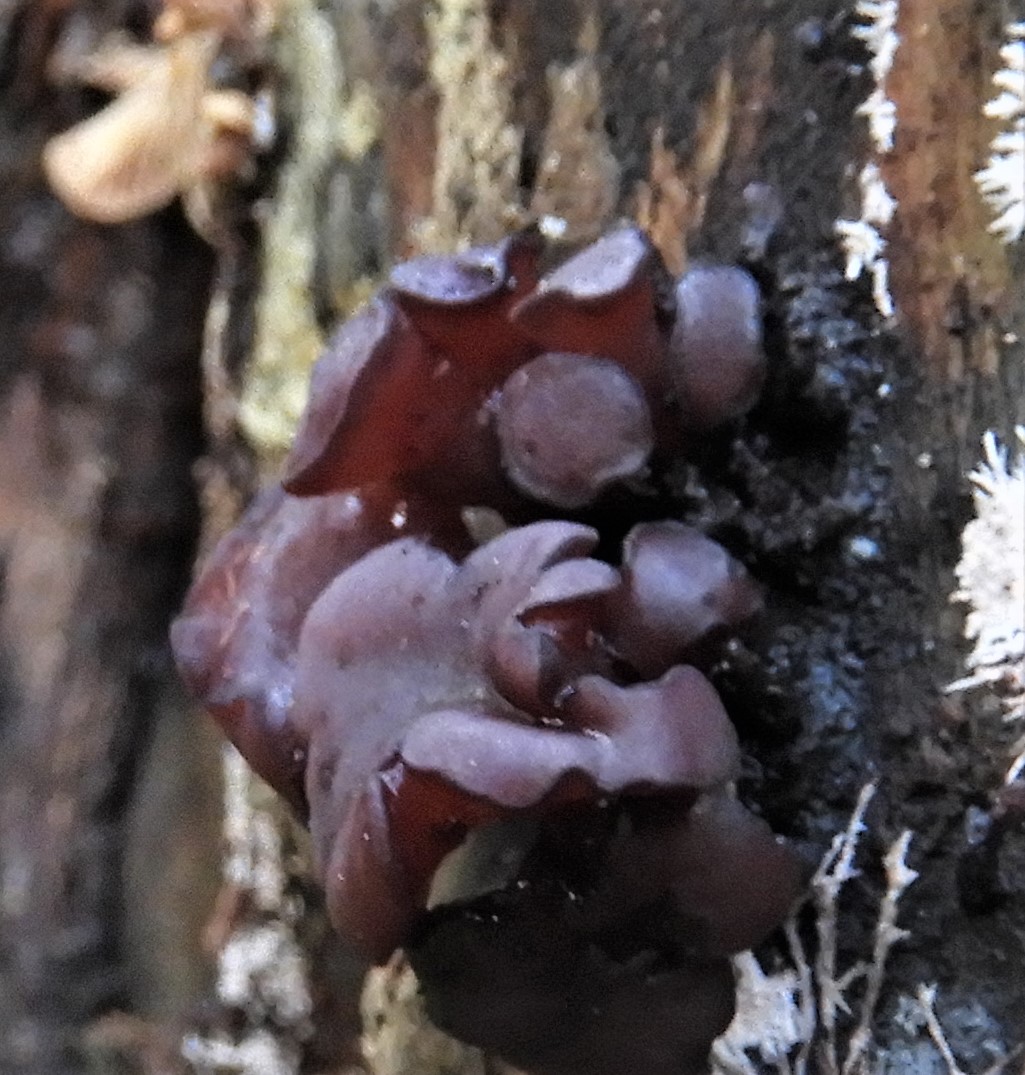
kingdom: Fungi
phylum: Ascomycota
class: Leotiomycetes
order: Helotiales
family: Gelatinodiscaceae
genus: Ascocoryne
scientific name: Ascocoryne cylichnium
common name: stor sejskive
